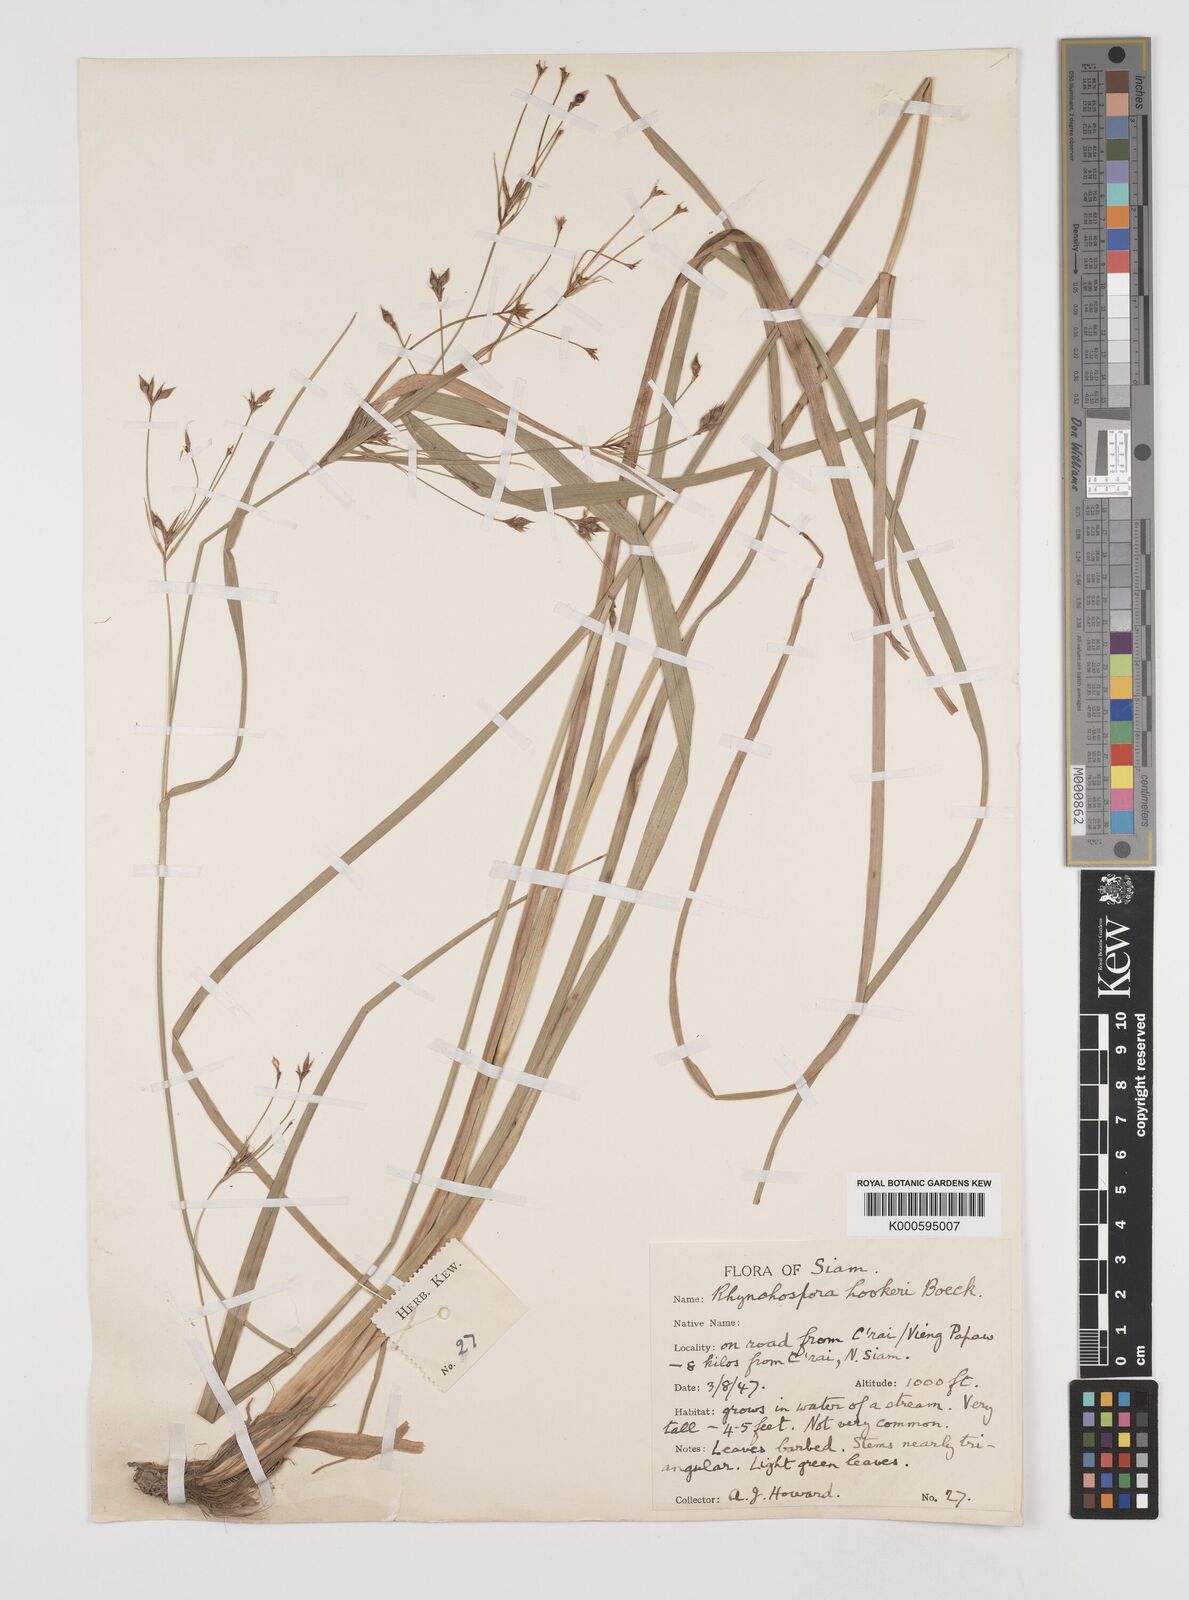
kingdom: Plantae
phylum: Tracheophyta
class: Liliopsida
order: Poales
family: Cyperaceae
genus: Rhynchospora
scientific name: Rhynchospora hookeri
